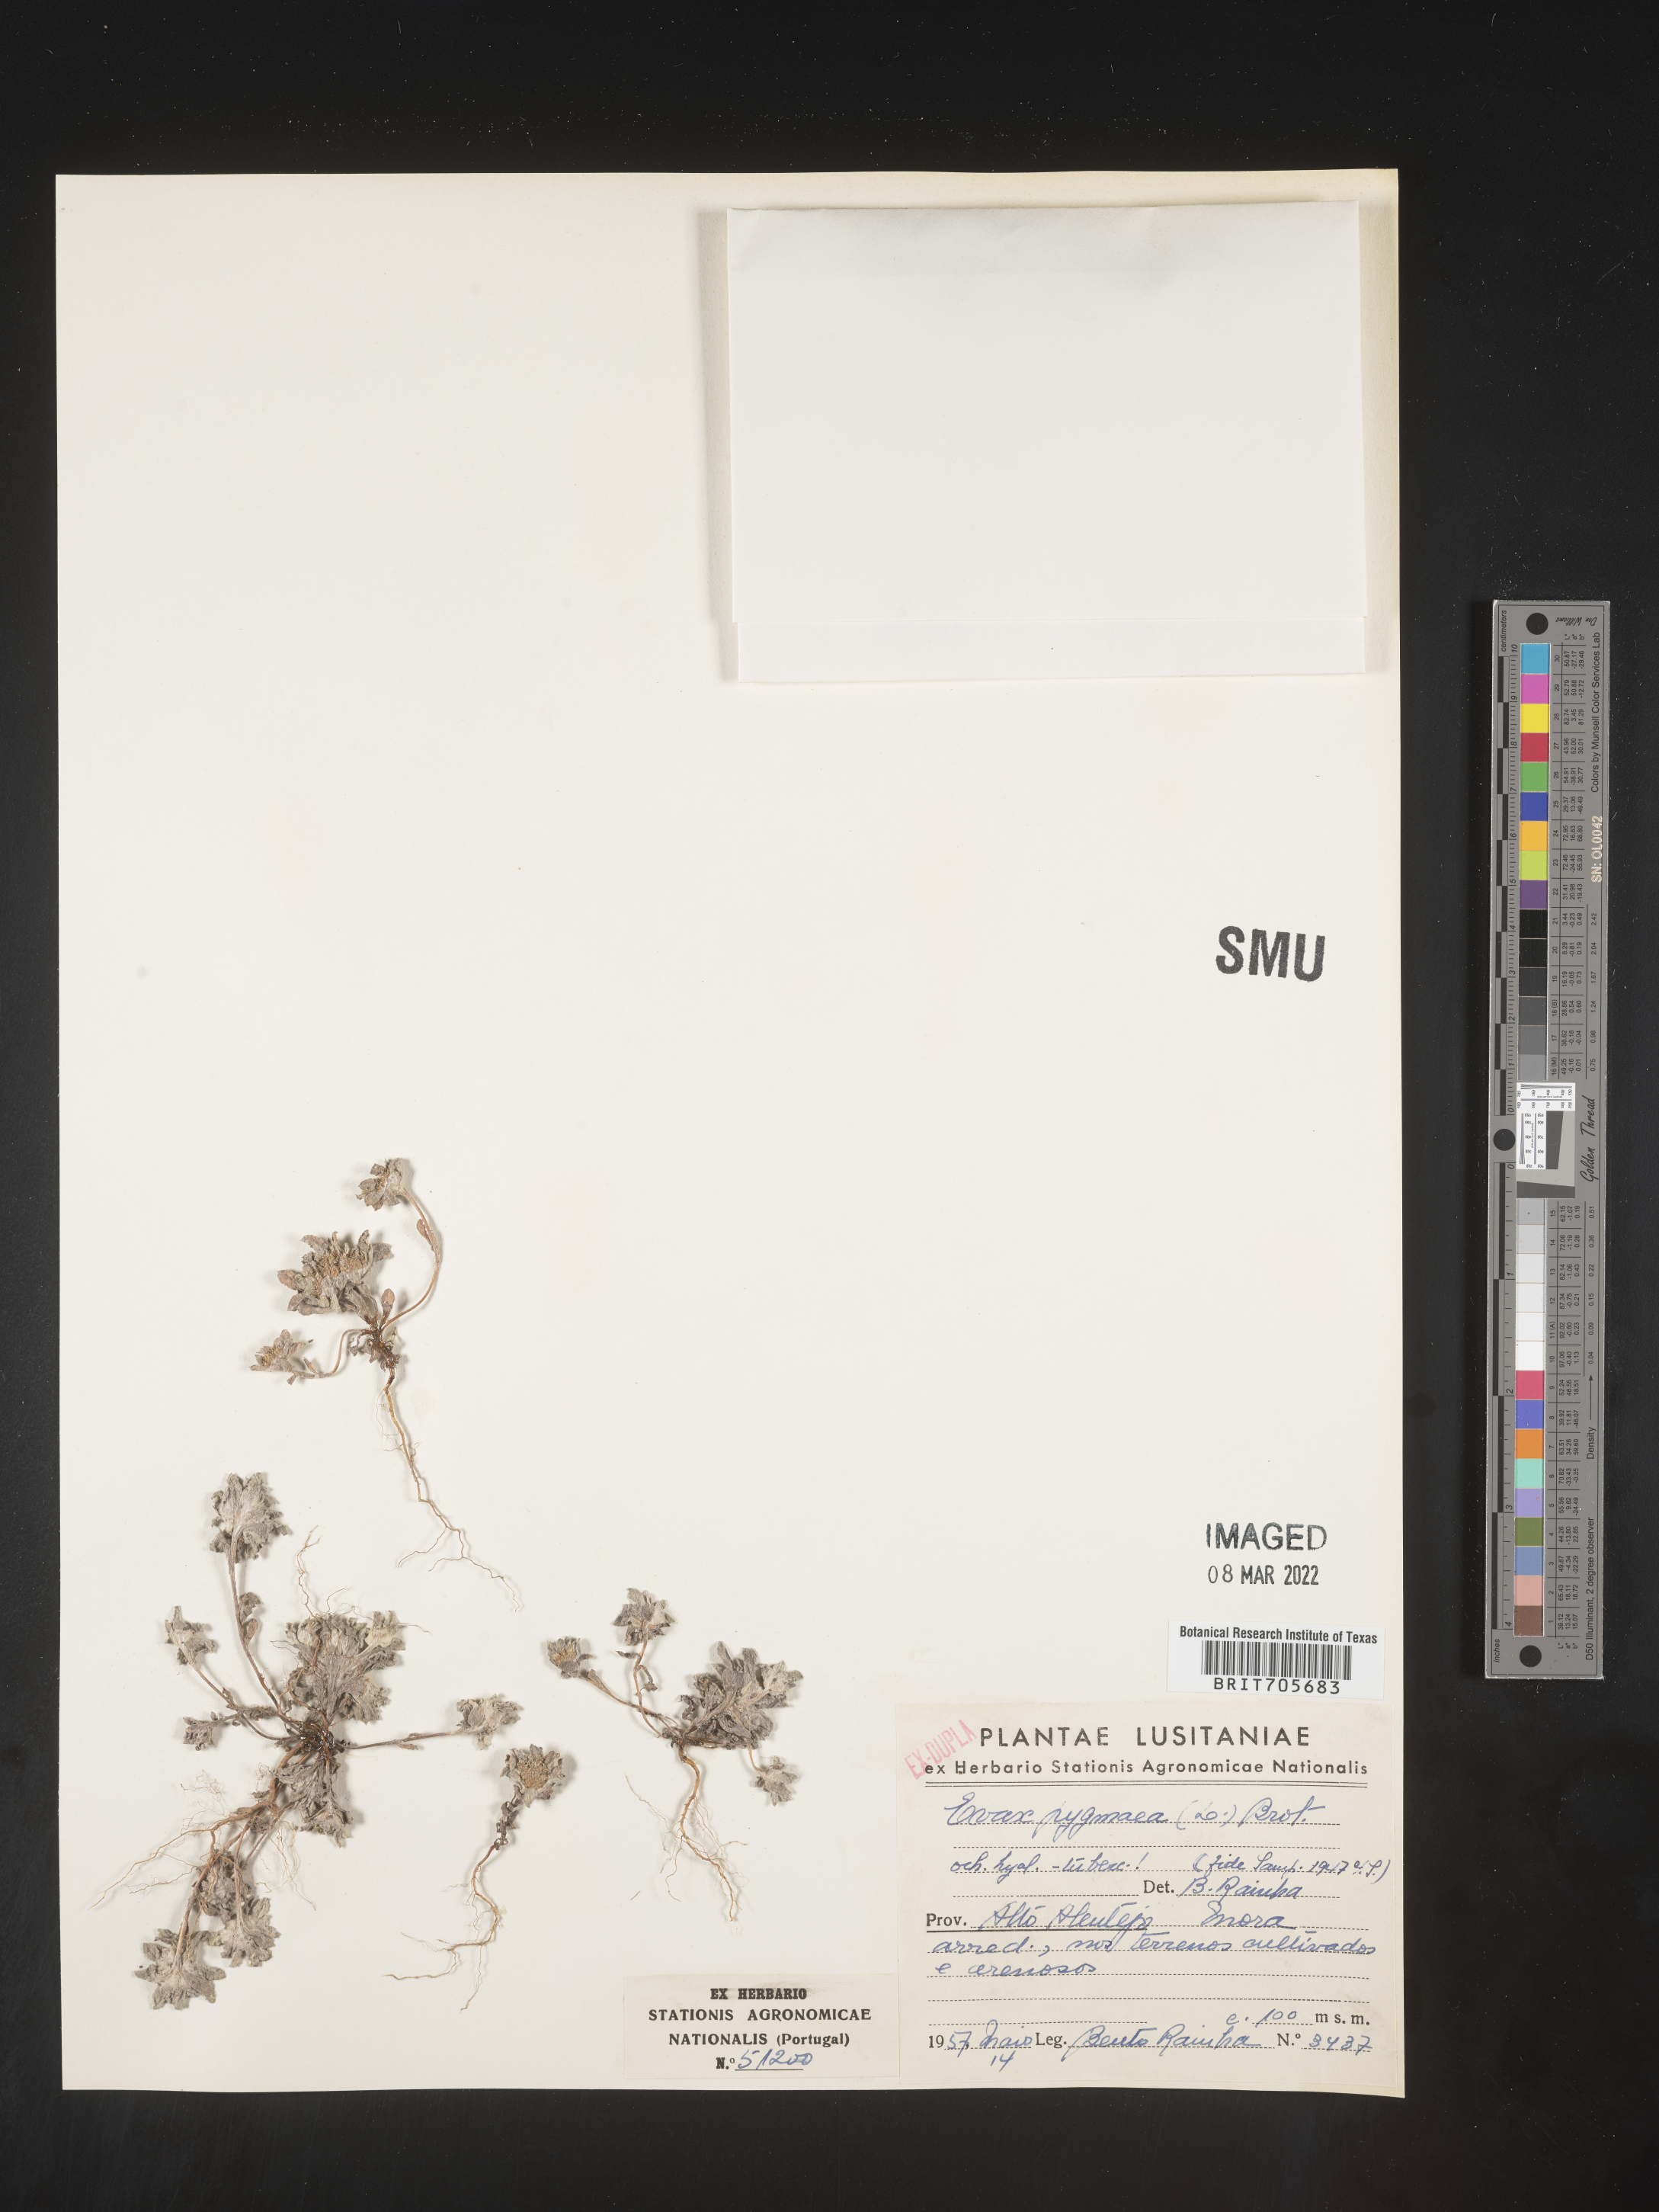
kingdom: Plantae
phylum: Tracheophyta
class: Magnoliopsida
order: Asterales
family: Asteraceae
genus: Filago
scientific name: Filago
